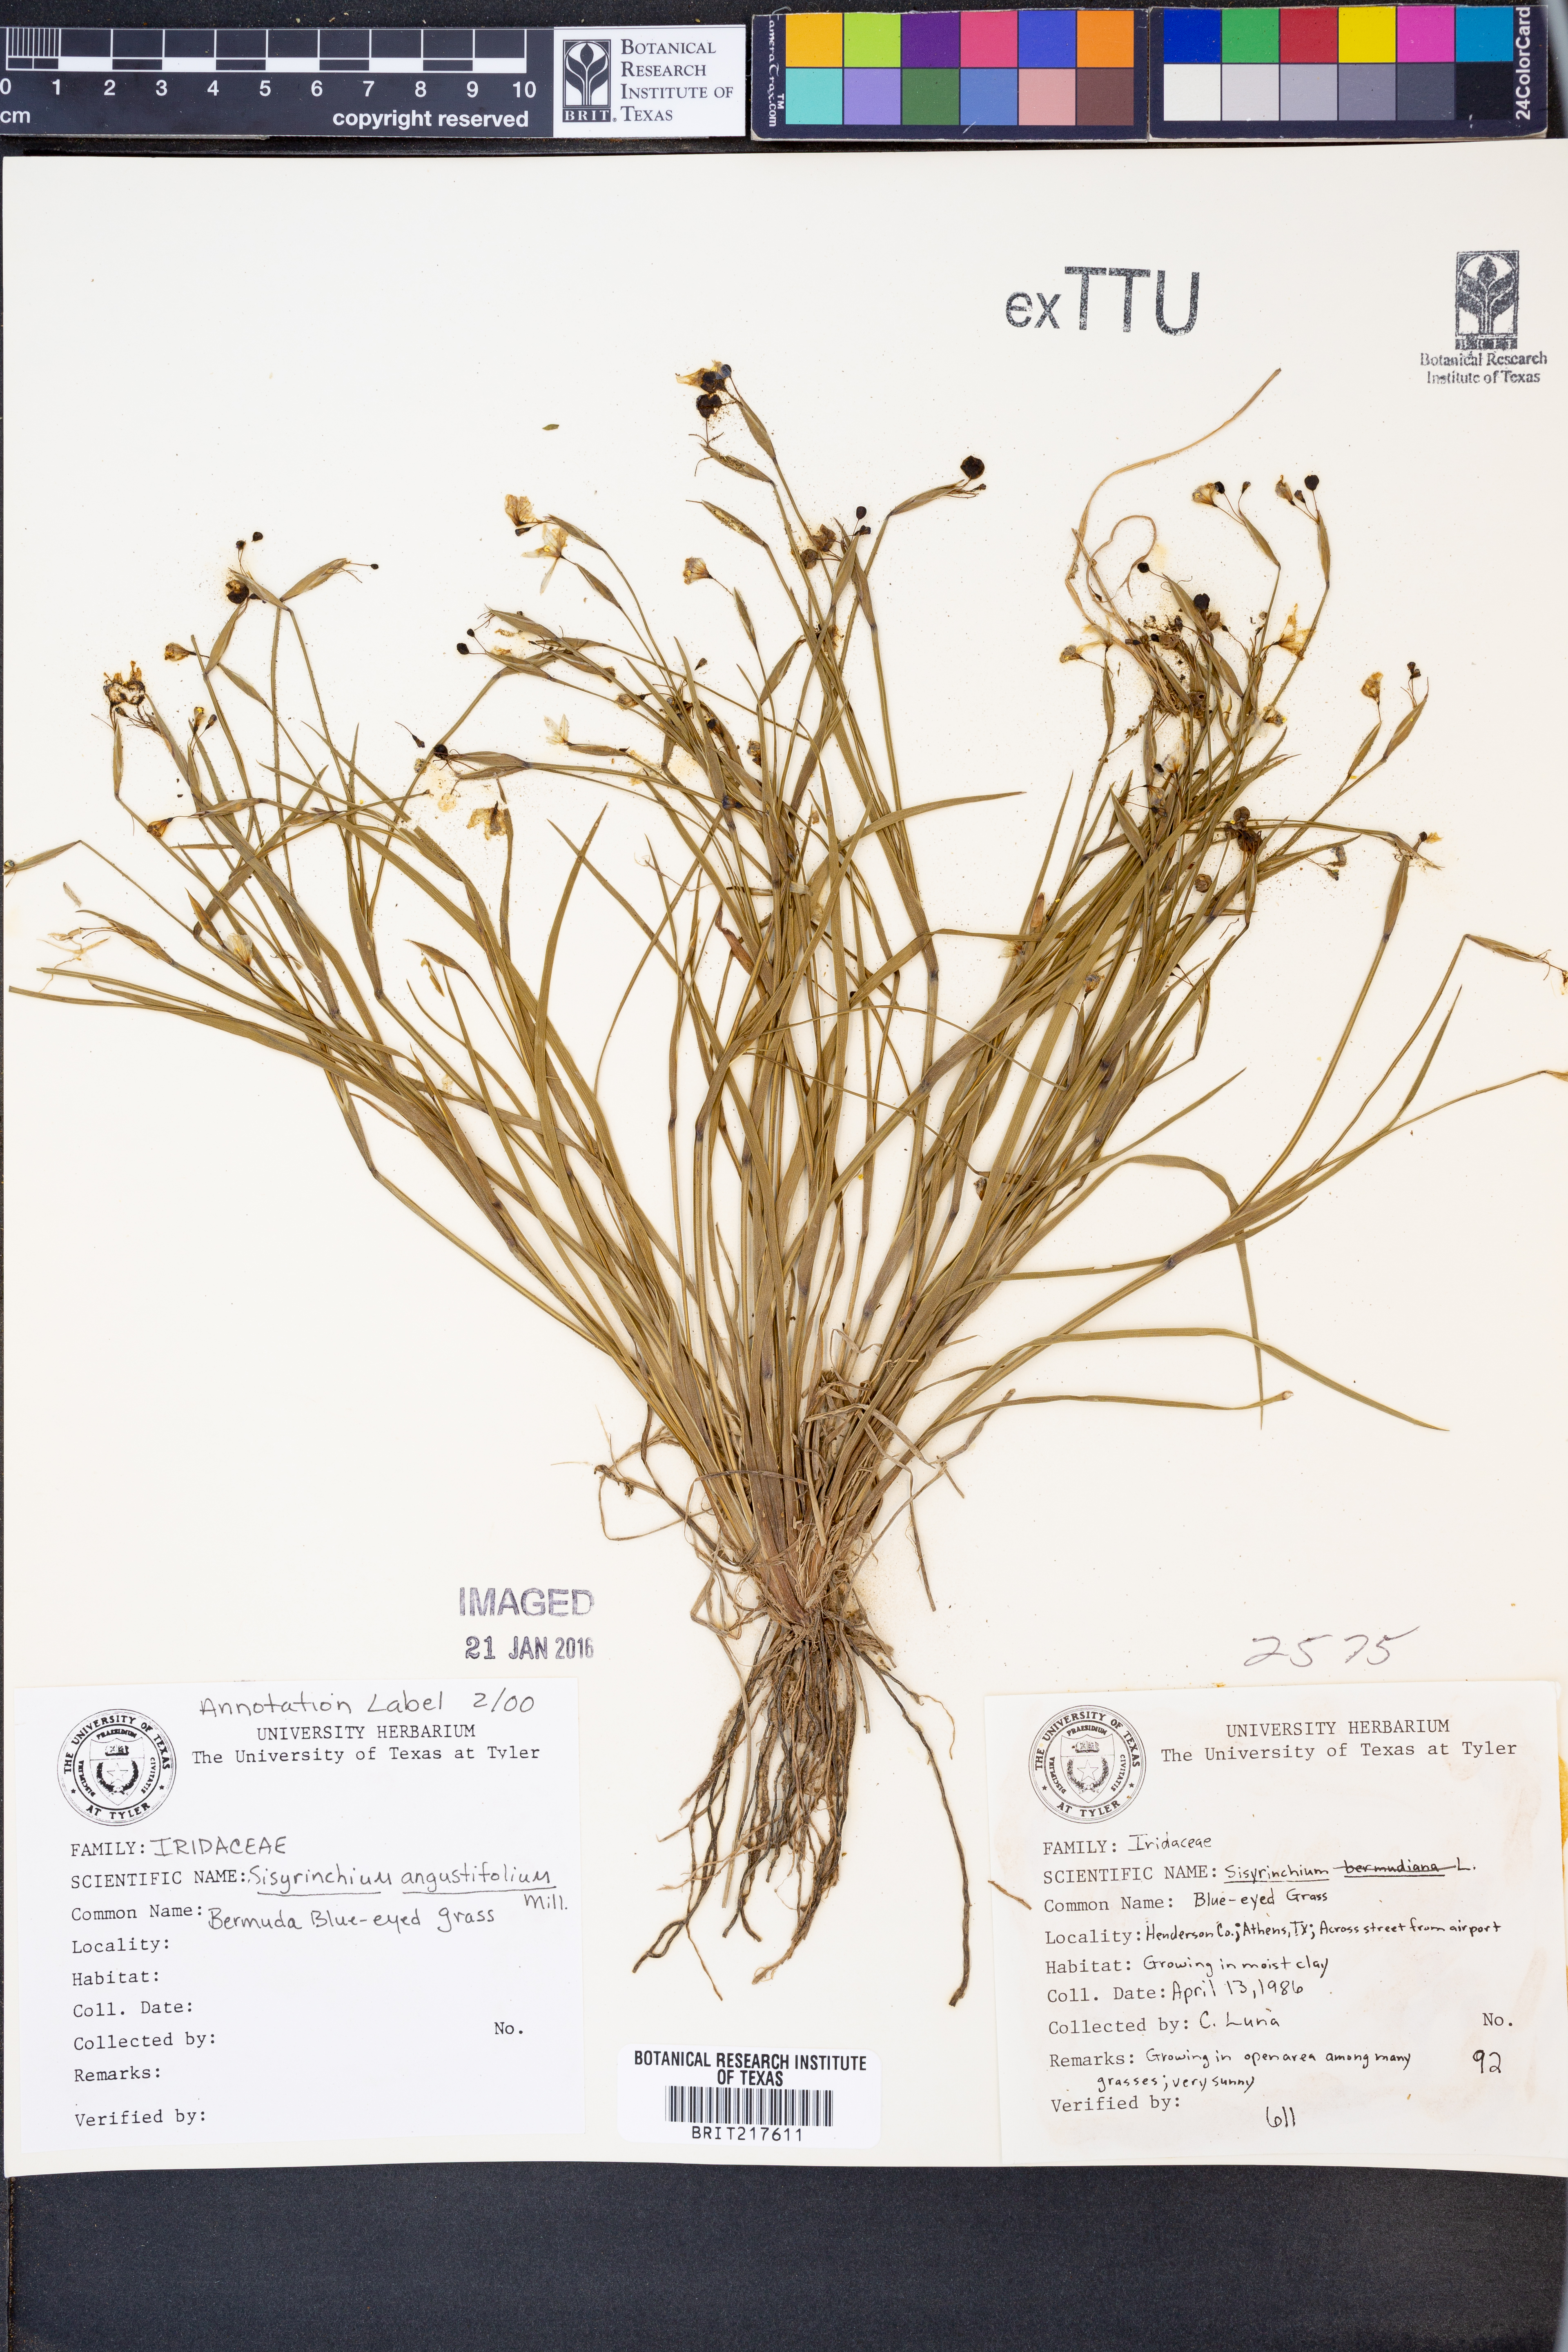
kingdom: Plantae
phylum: Tracheophyta
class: Liliopsida
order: Asparagales
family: Iridaceae
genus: Sisyrinchium
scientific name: Sisyrinchium angustifolium
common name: Narrow-leaf blue-eyed-grass
